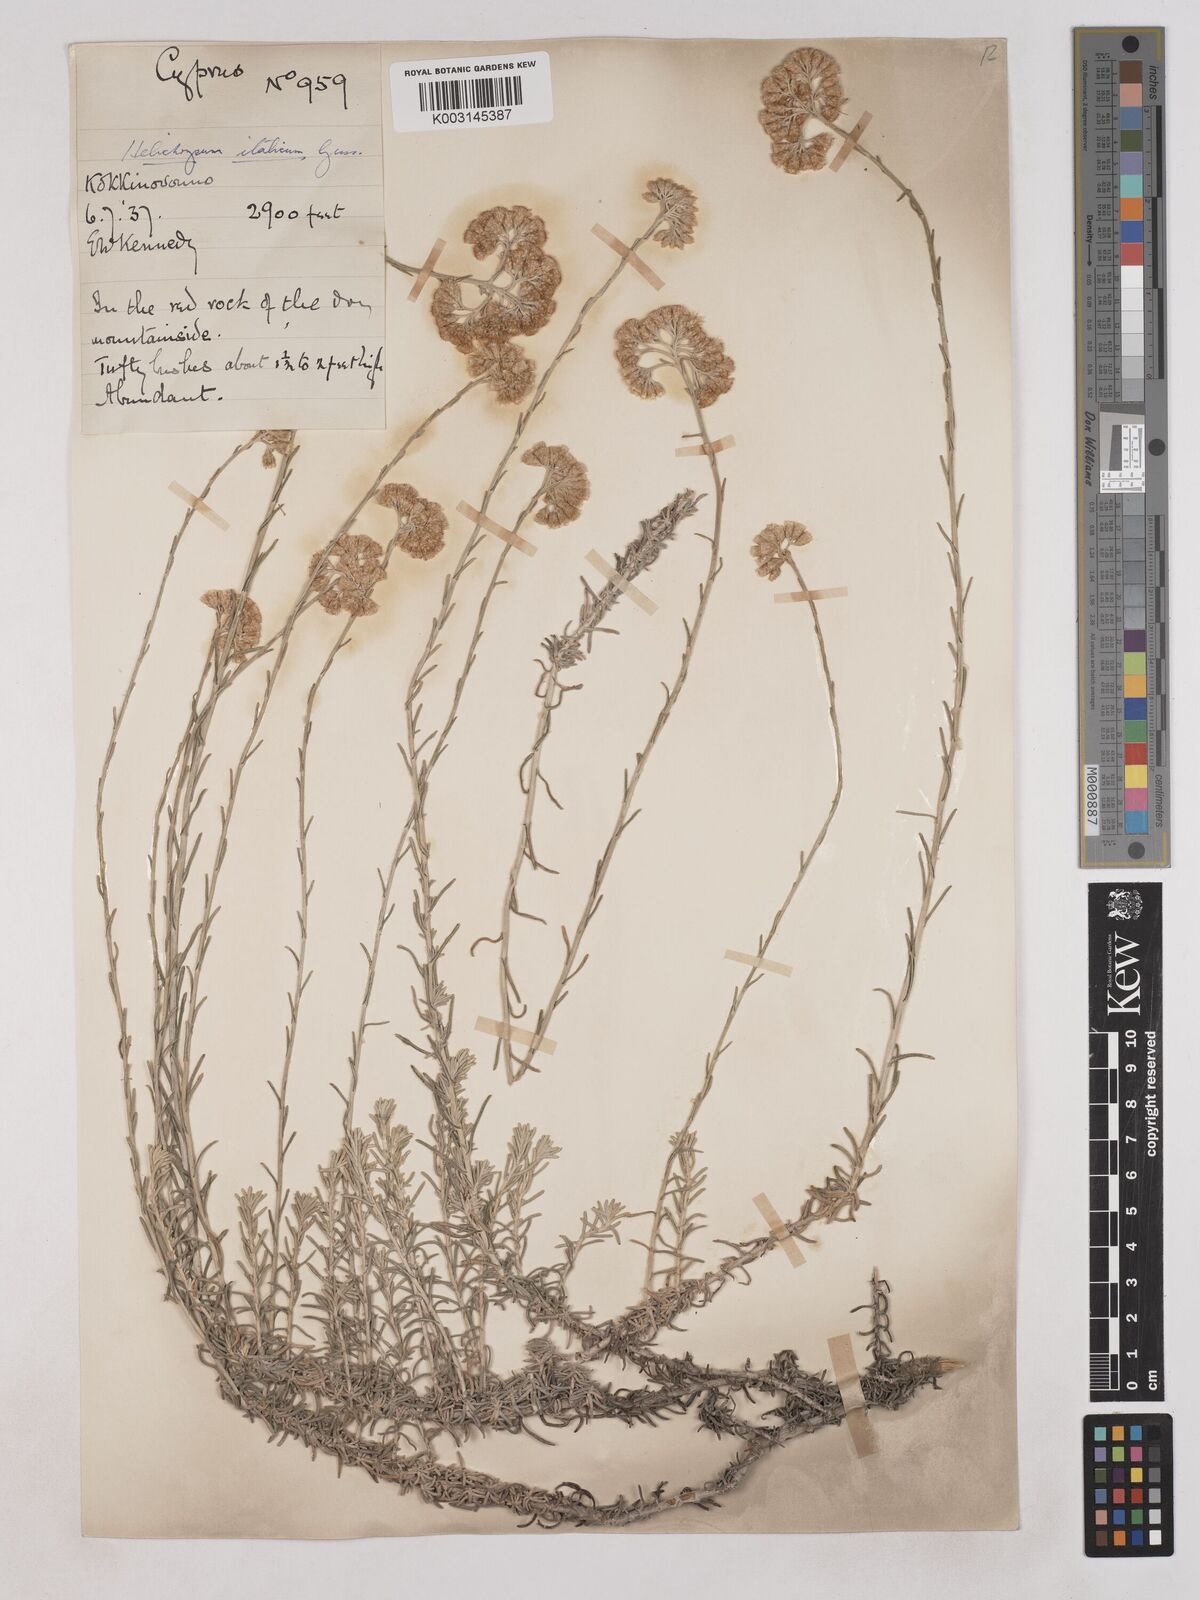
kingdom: Plantae
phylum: Tracheophyta
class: Magnoliopsida
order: Asterales
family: Asteraceae
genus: Helichrysum
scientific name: Helichrysum italicum
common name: Curryplant
